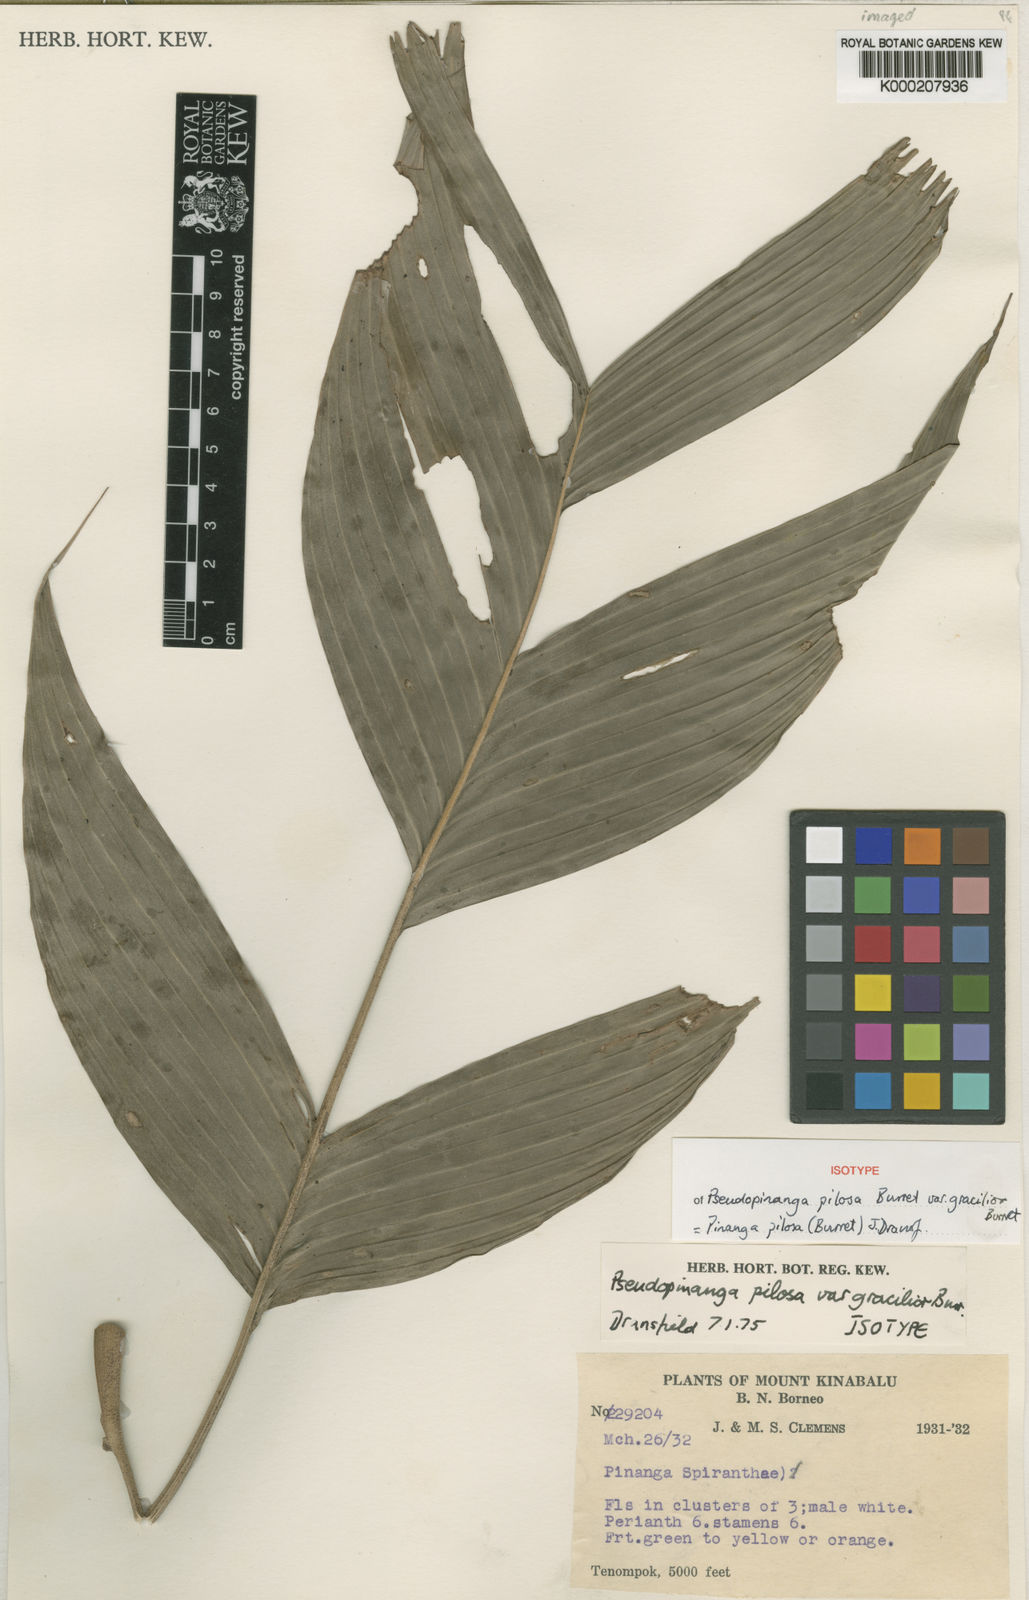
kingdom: Plantae
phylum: Tracheophyta
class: Liliopsida
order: Arecales
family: Arecaceae
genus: Pinanga
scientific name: Pinanga pilosa
